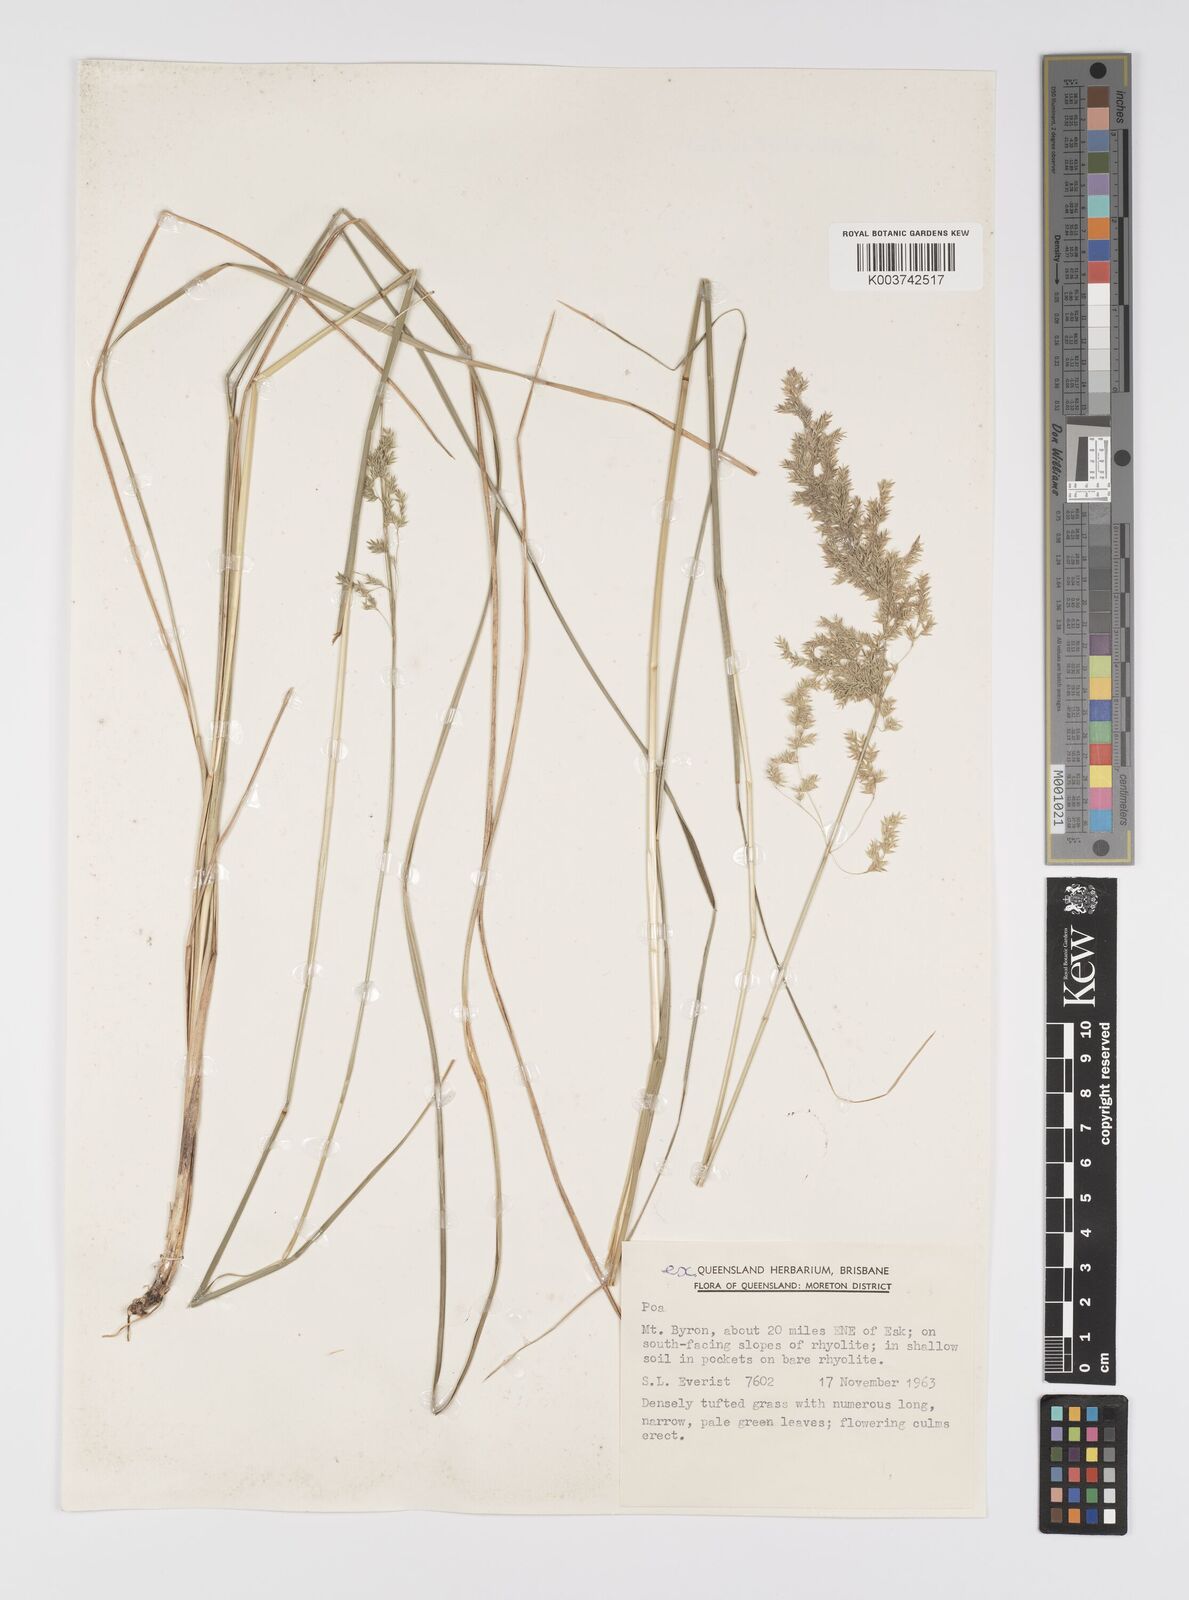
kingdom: Plantae
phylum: Tracheophyta
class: Liliopsida
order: Poales
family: Poaceae
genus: Poa
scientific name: Poa
